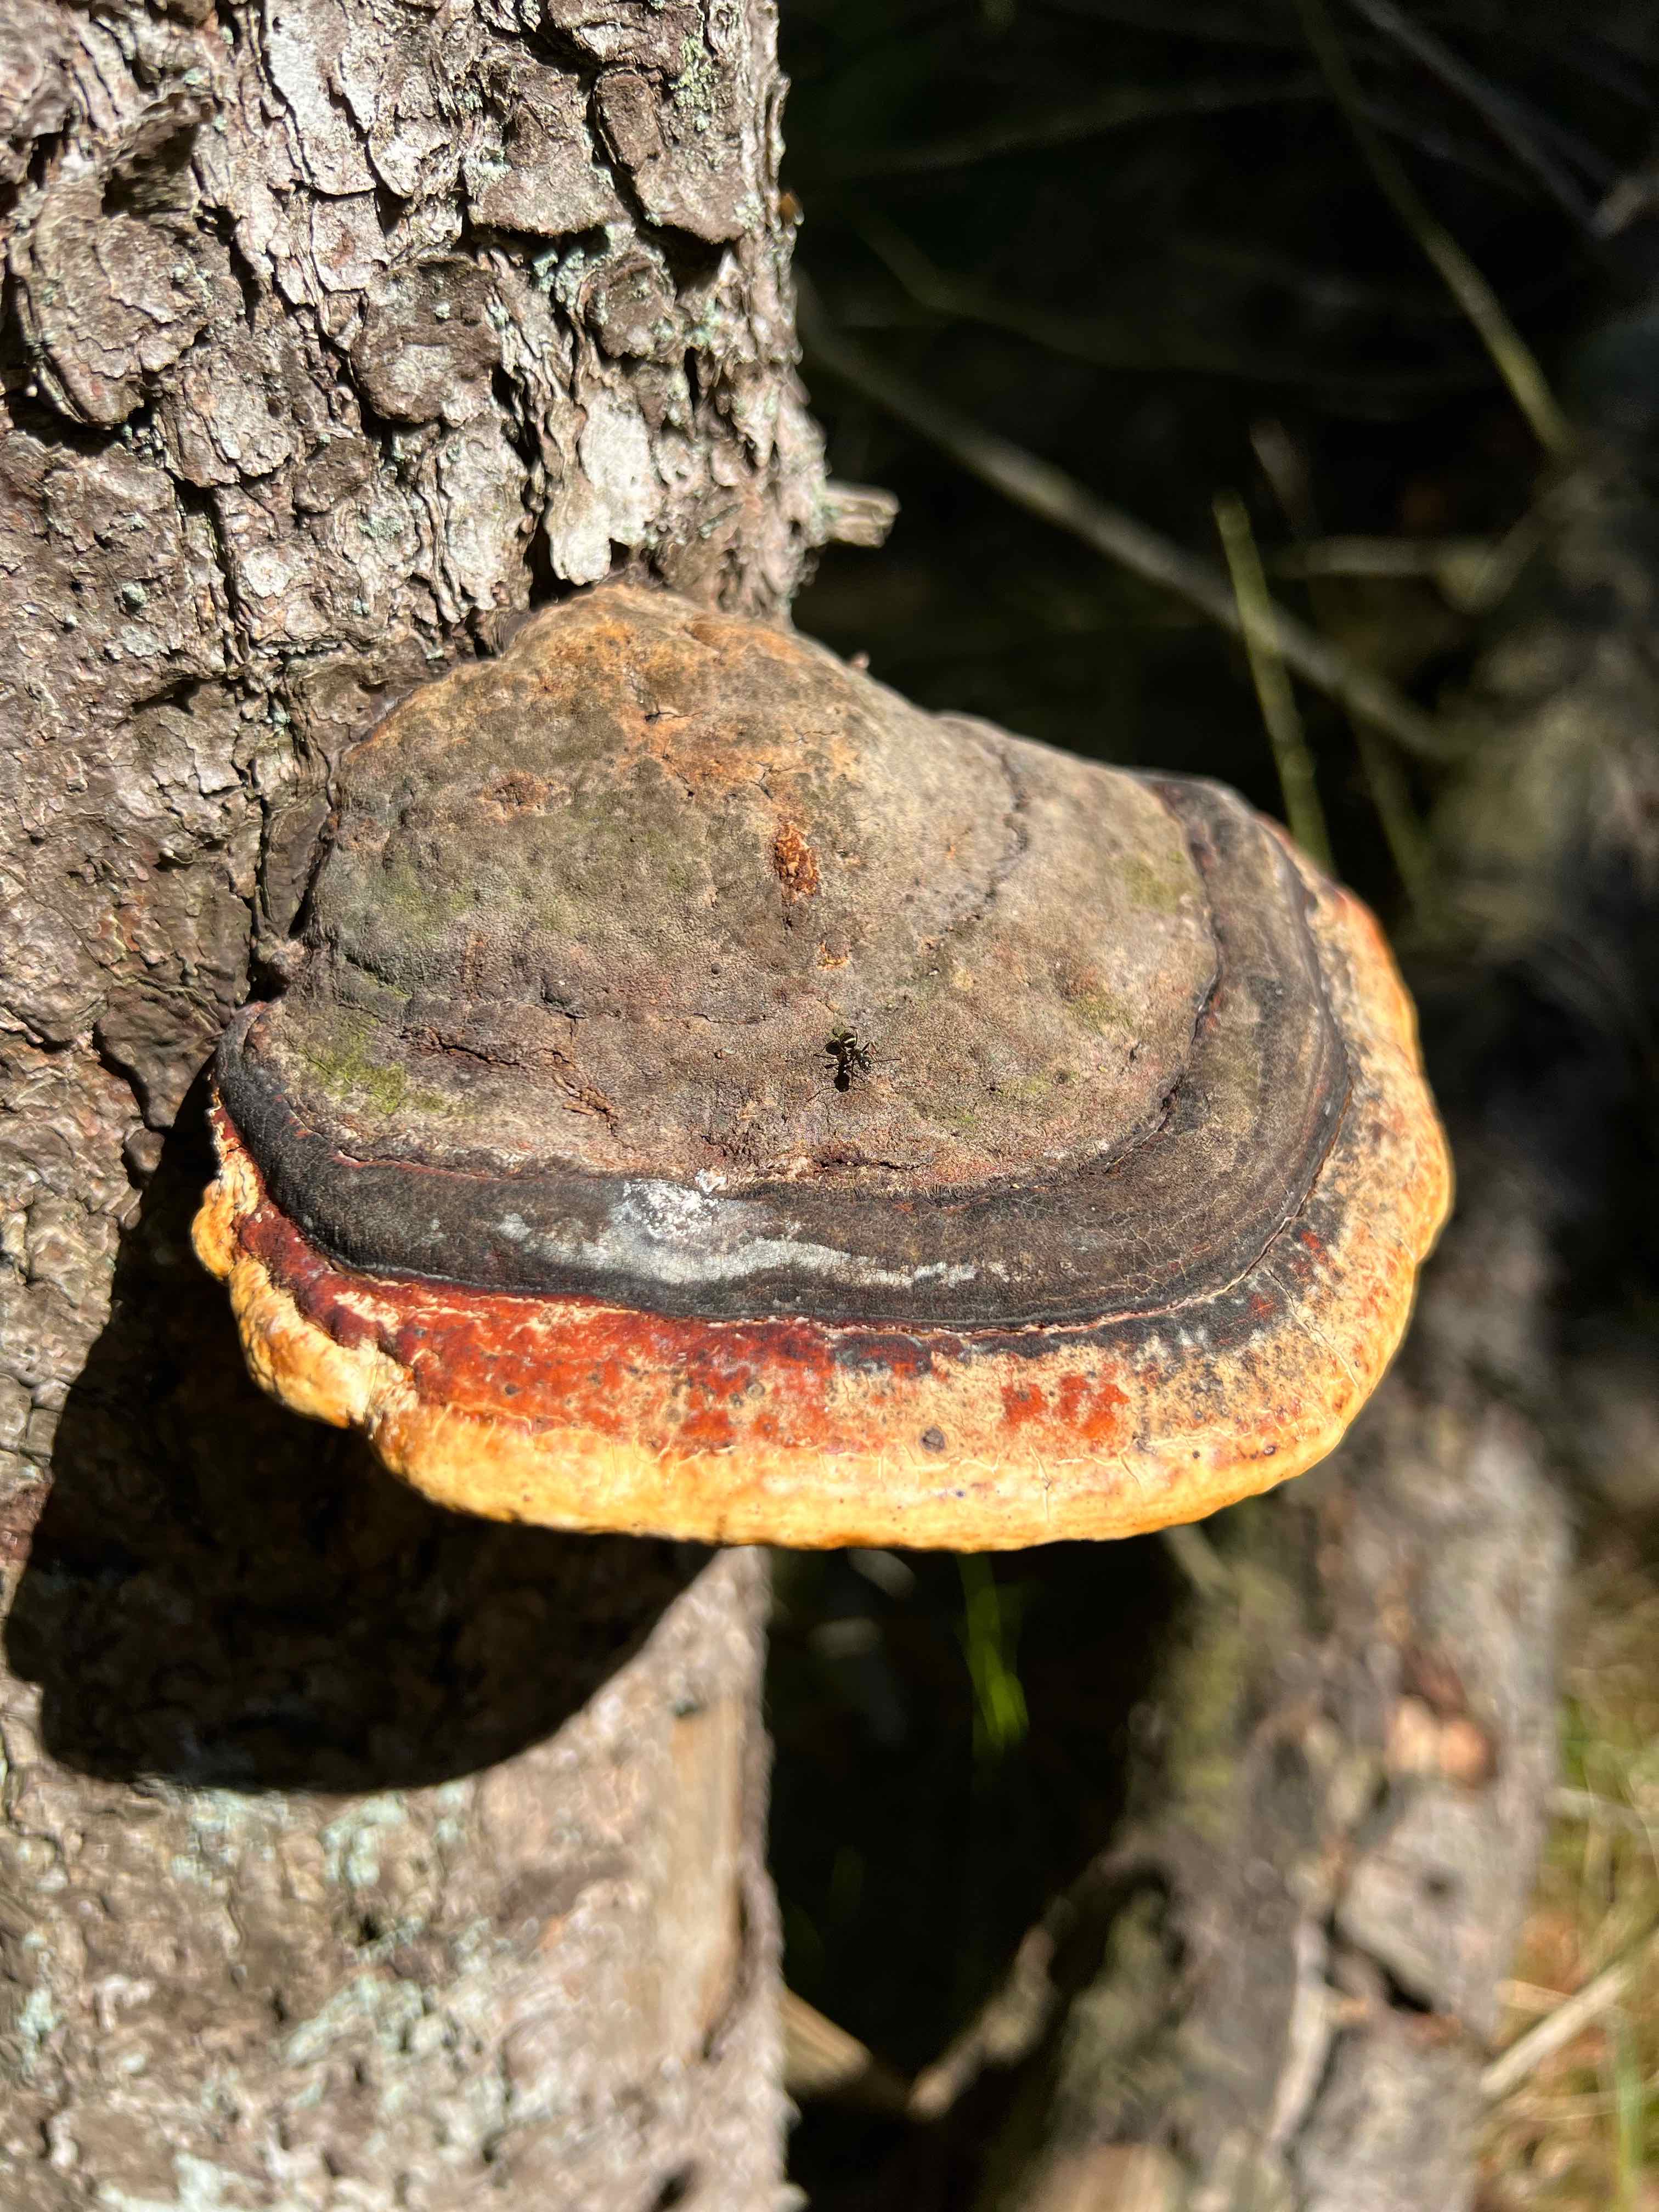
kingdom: Fungi
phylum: Basidiomycota
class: Agaricomycetes
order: Polyporales
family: Fomitopsidaceae
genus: Fomitopsis
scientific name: Fomitopsis pinicola
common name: randbæltet hovporesvamp
